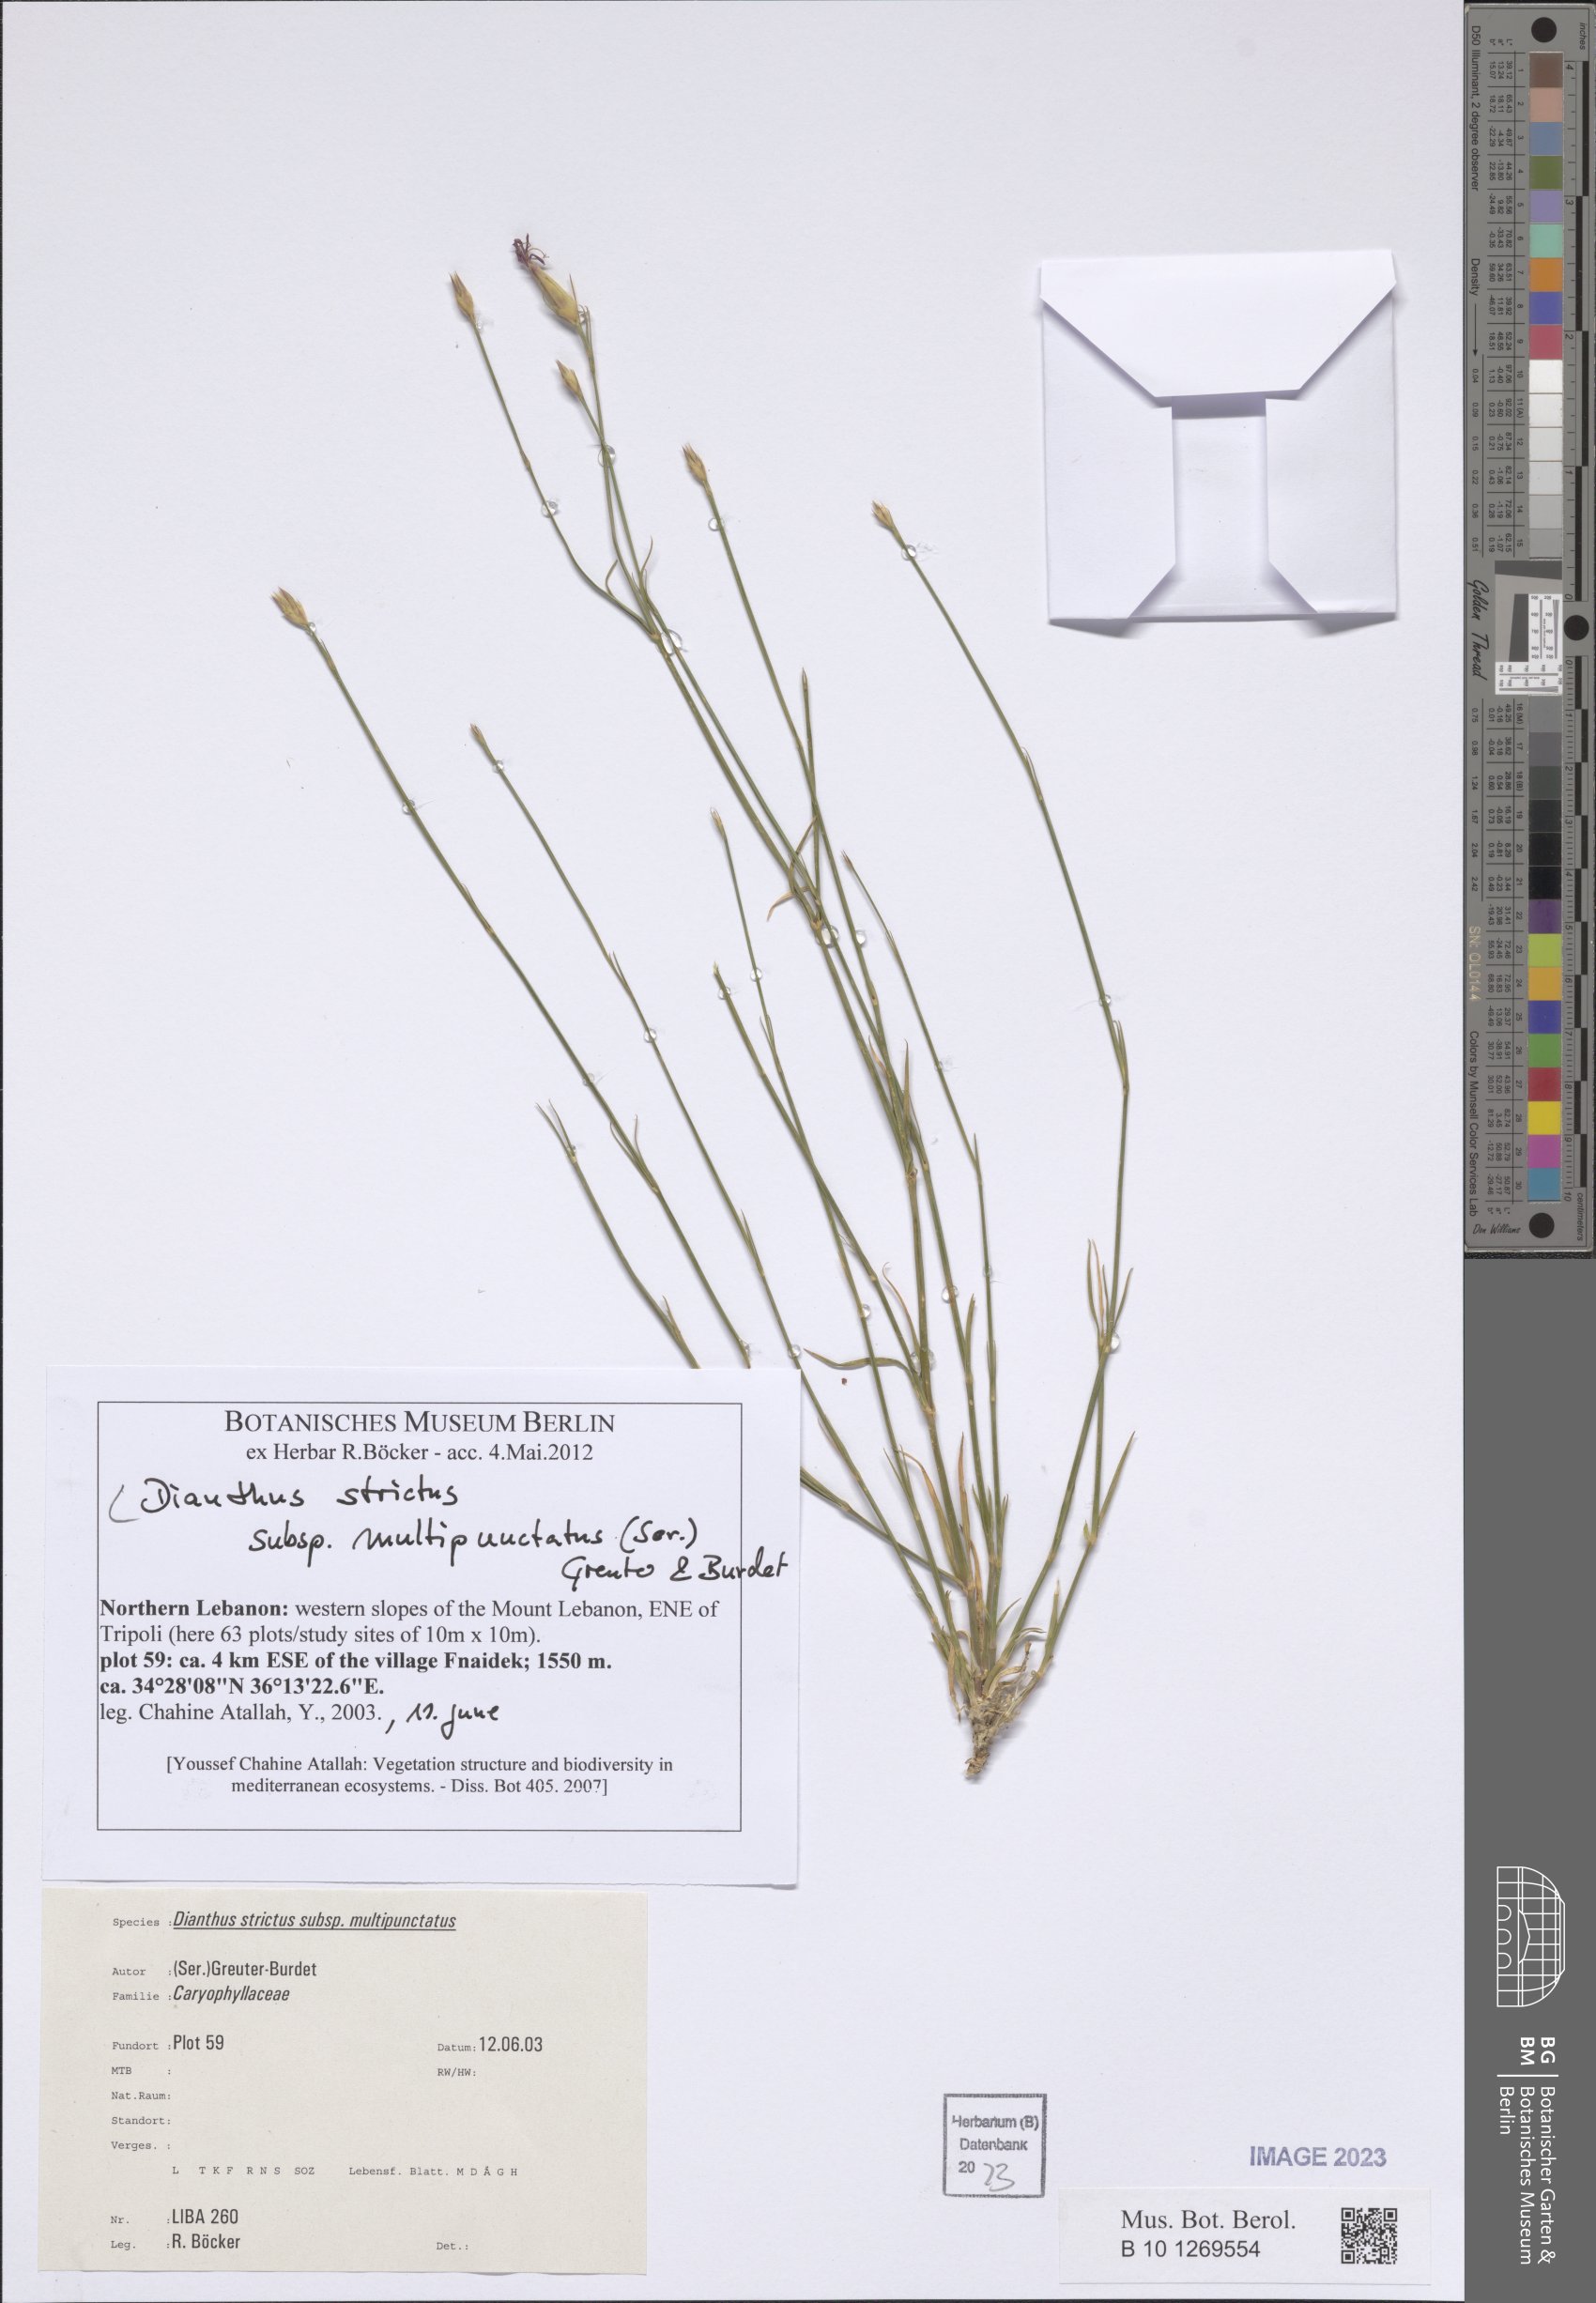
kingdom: Plantae
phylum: Tracheophyta
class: Magnoliopsida
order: Caryophyllales
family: Caryophyllaceae
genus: Dianthus
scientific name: Dianthus strictus
